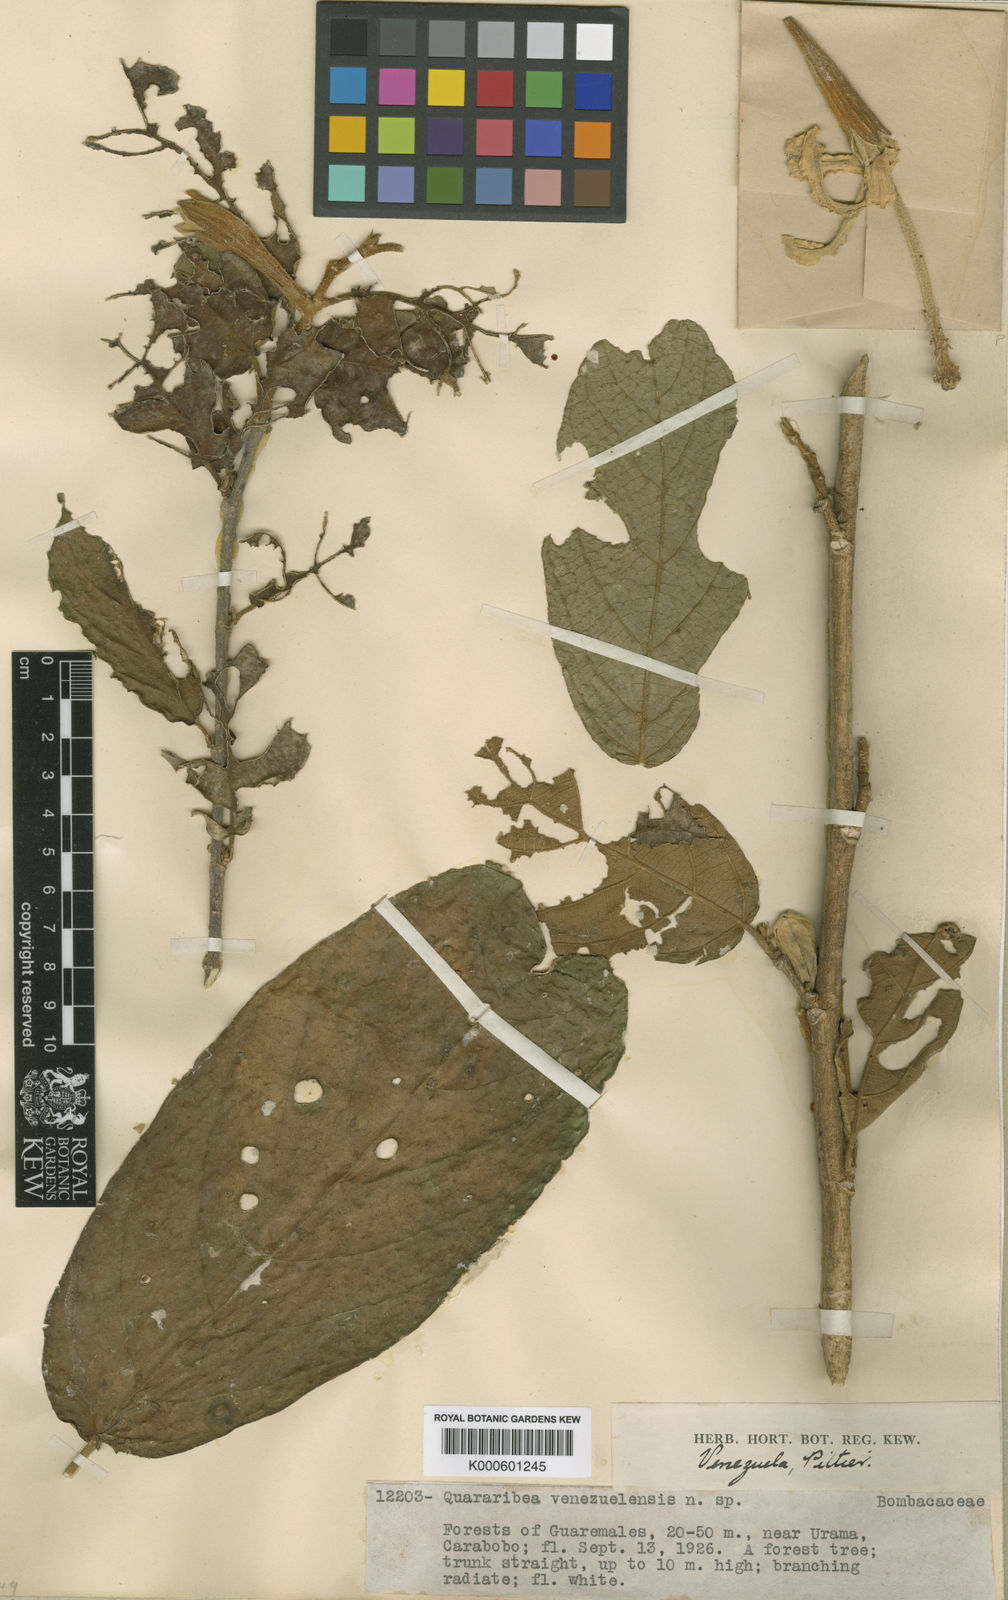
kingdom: Plantae
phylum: Tracheophyta
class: Magnoliopsida
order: Malvales
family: Malvaceae
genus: Quararibea
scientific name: Quararibea obovalifolia
